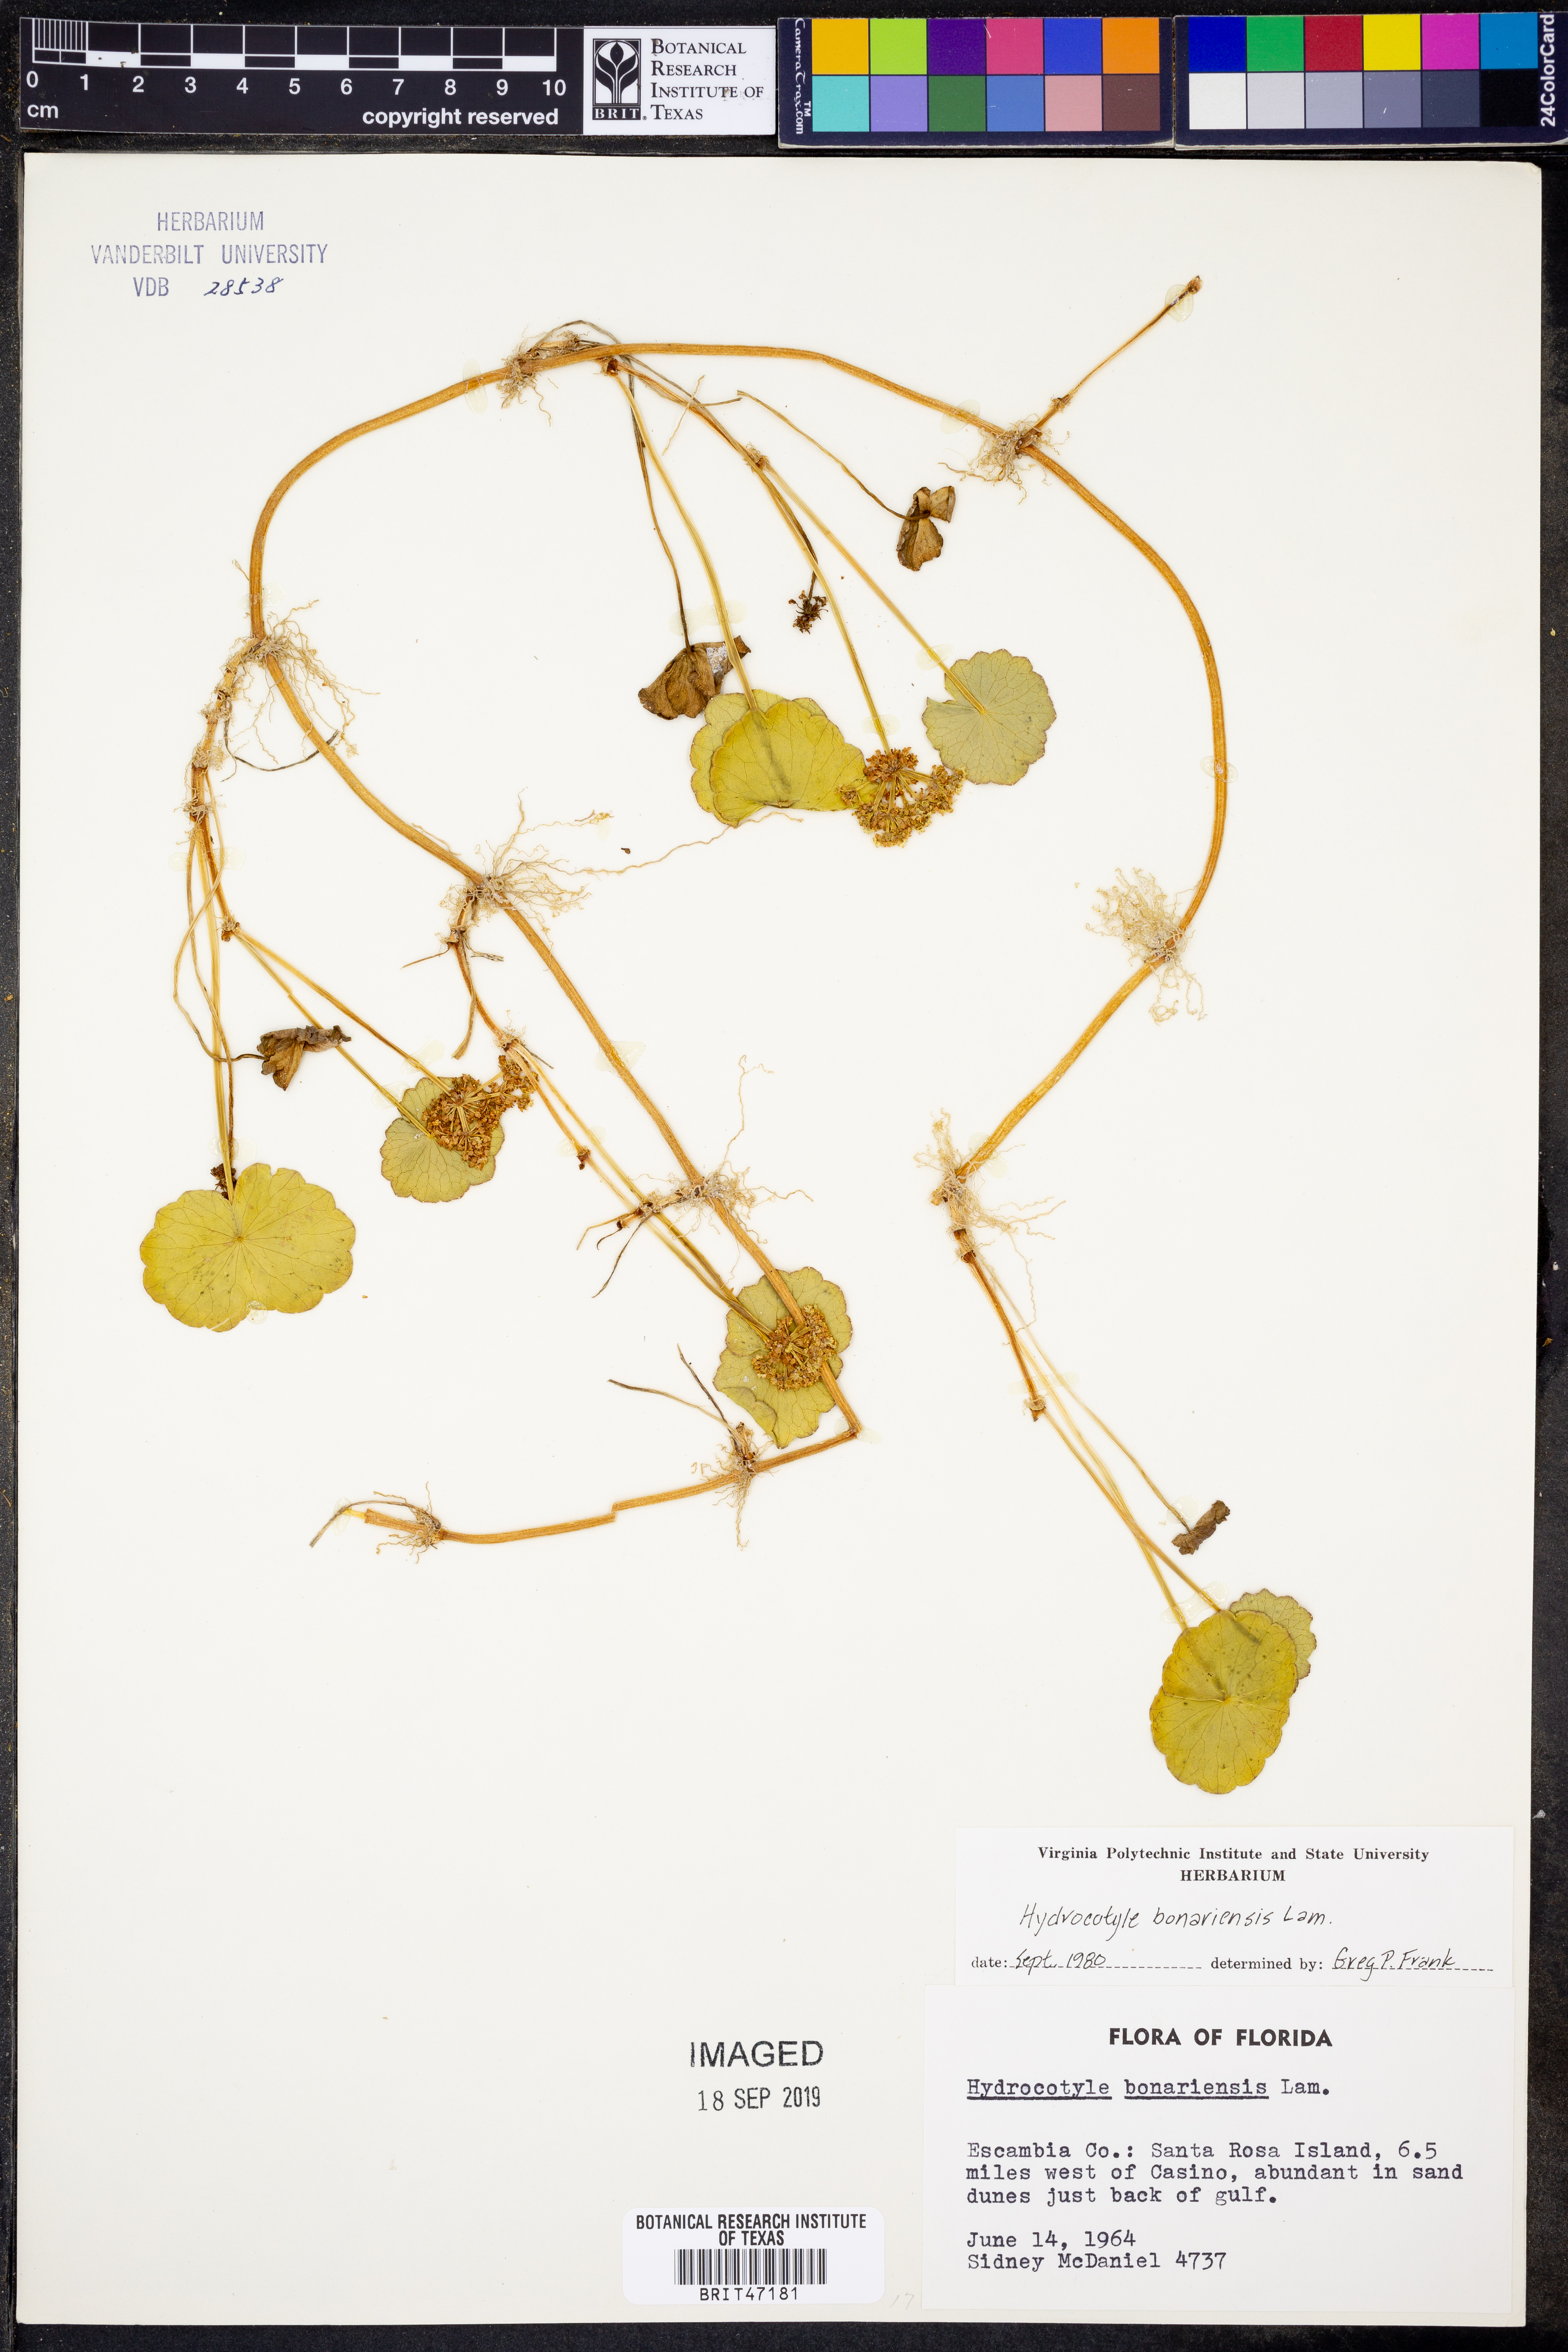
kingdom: Plantae
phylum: Tracheophyta
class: Magnoliopsida
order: Apiales
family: Araliaceae
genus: Hydrocotyle
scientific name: Hydrocotyle bonariensis
